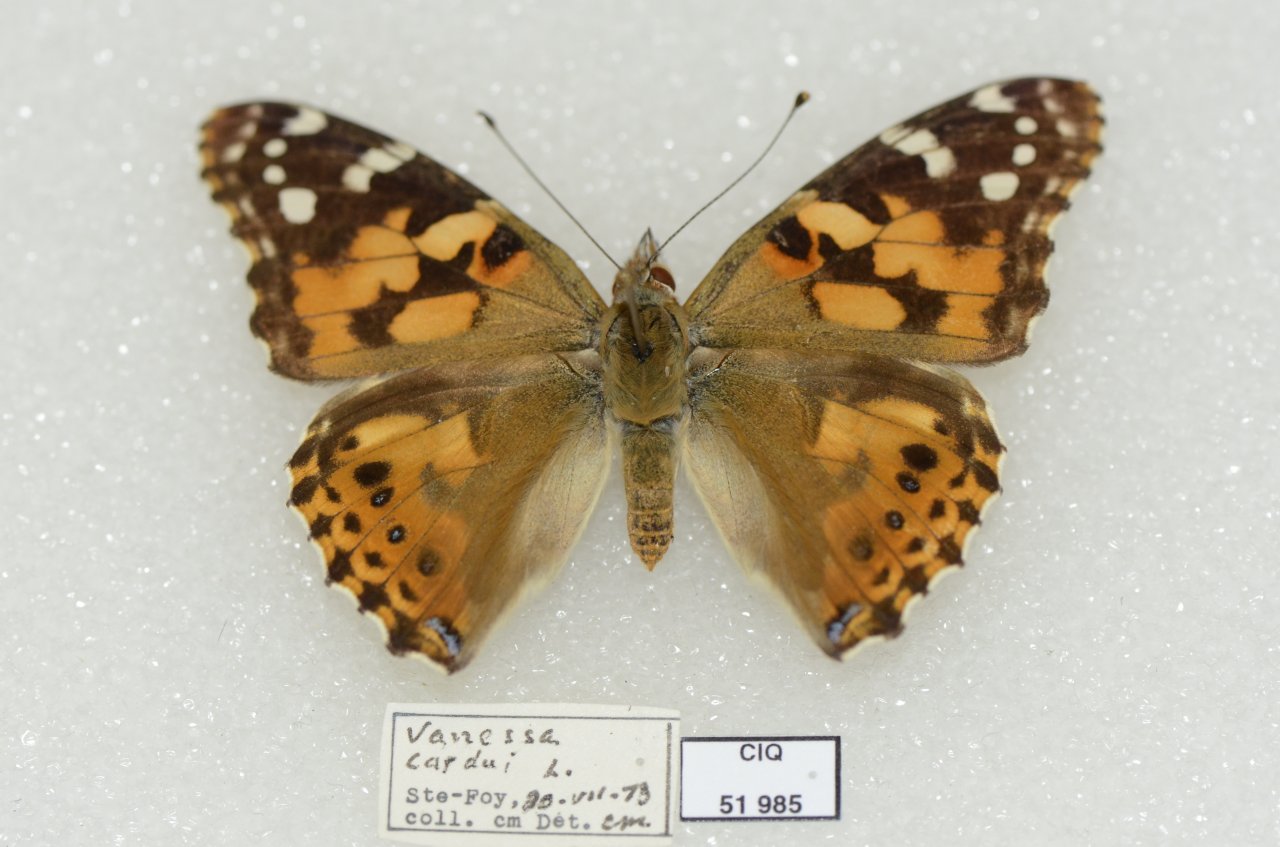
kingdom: Animalia
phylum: Arthropoda
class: Insecta
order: Lepidoptera
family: Nymphalidae
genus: Vanessa
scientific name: Vanessa cardui
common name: Painted Lady
